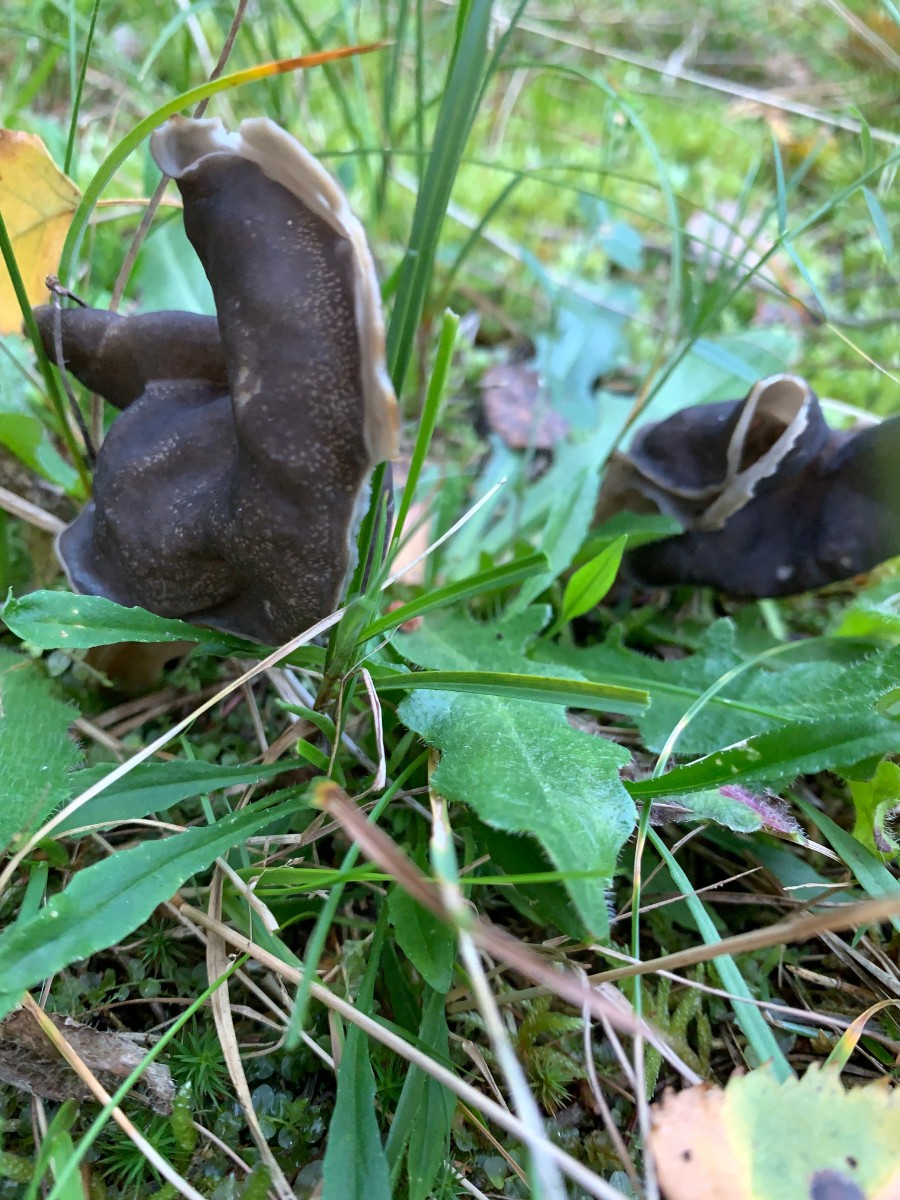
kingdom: Fungi
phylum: Ascomycota
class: Pezizomycetes
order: Pezizales
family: Helvellaceae
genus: Helvella
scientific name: Helvella lacunosa
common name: grubet foldhat
